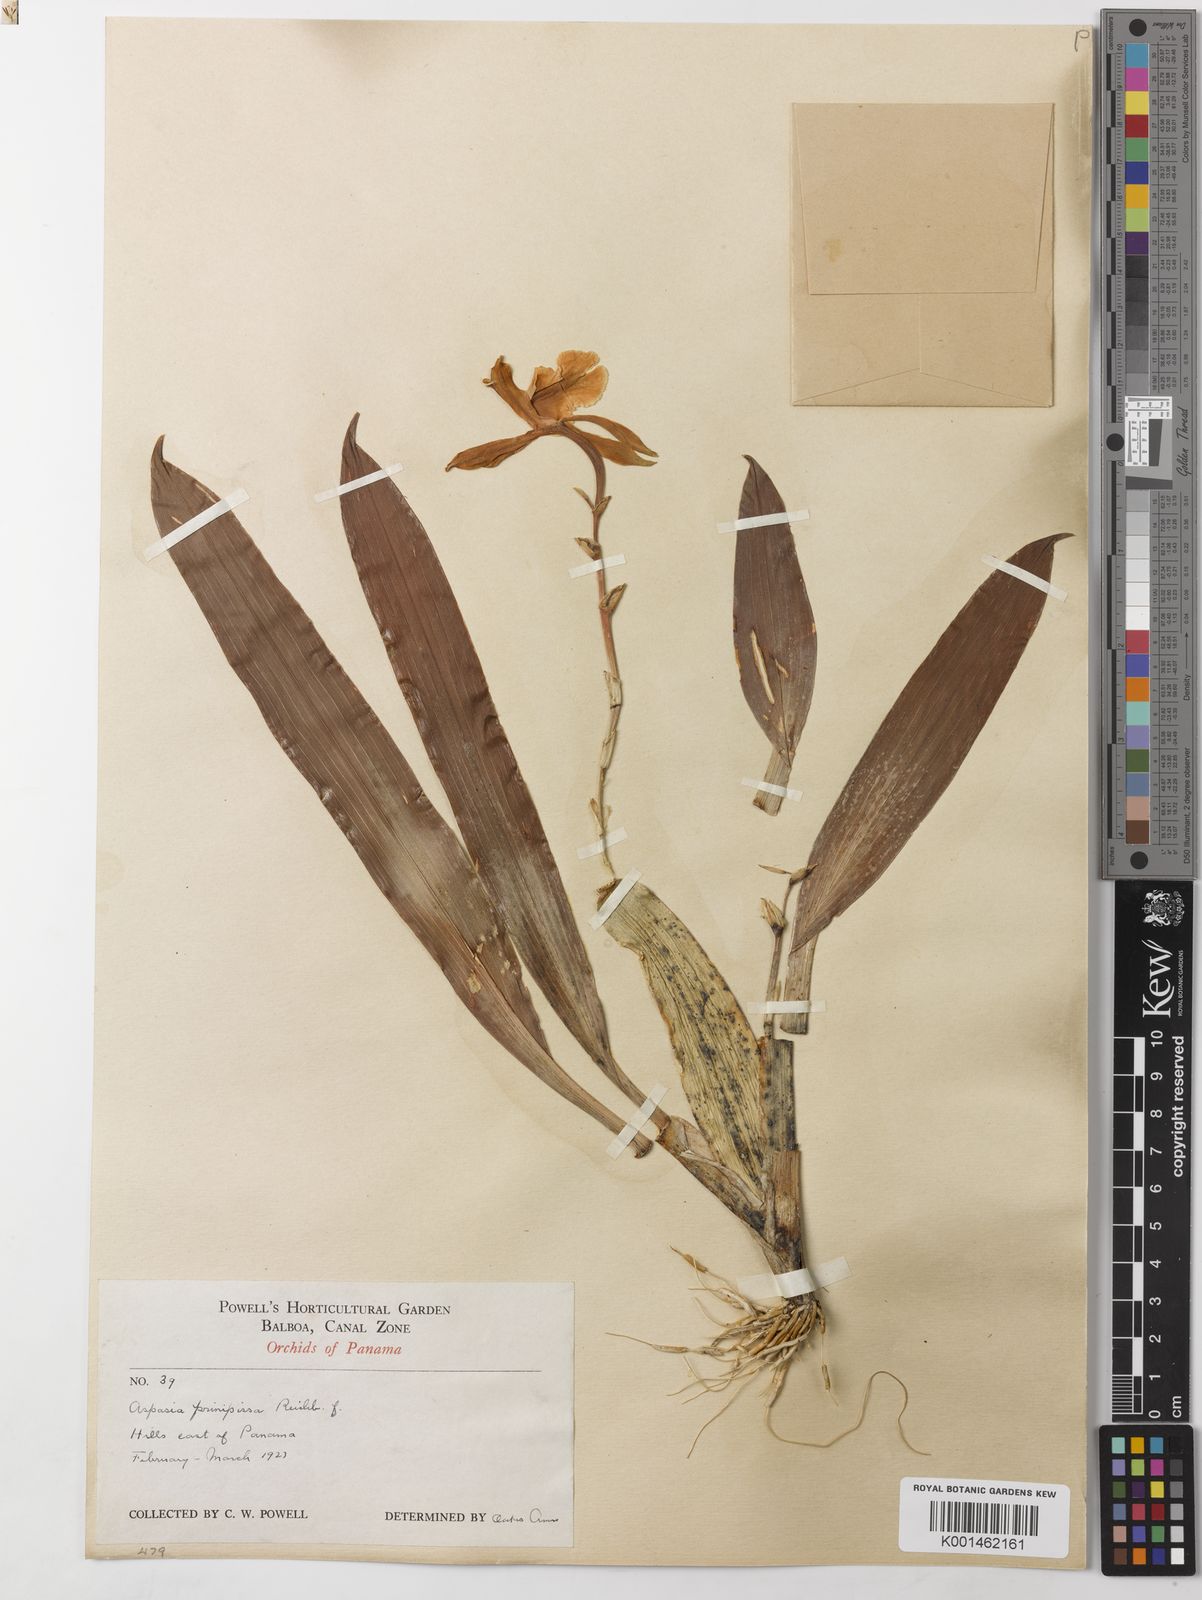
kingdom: Plantae
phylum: Tracheophyta
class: Liliopsida
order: Asparagales
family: Orchidaceae
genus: Aspasia
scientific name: Aspasia epidendroides
